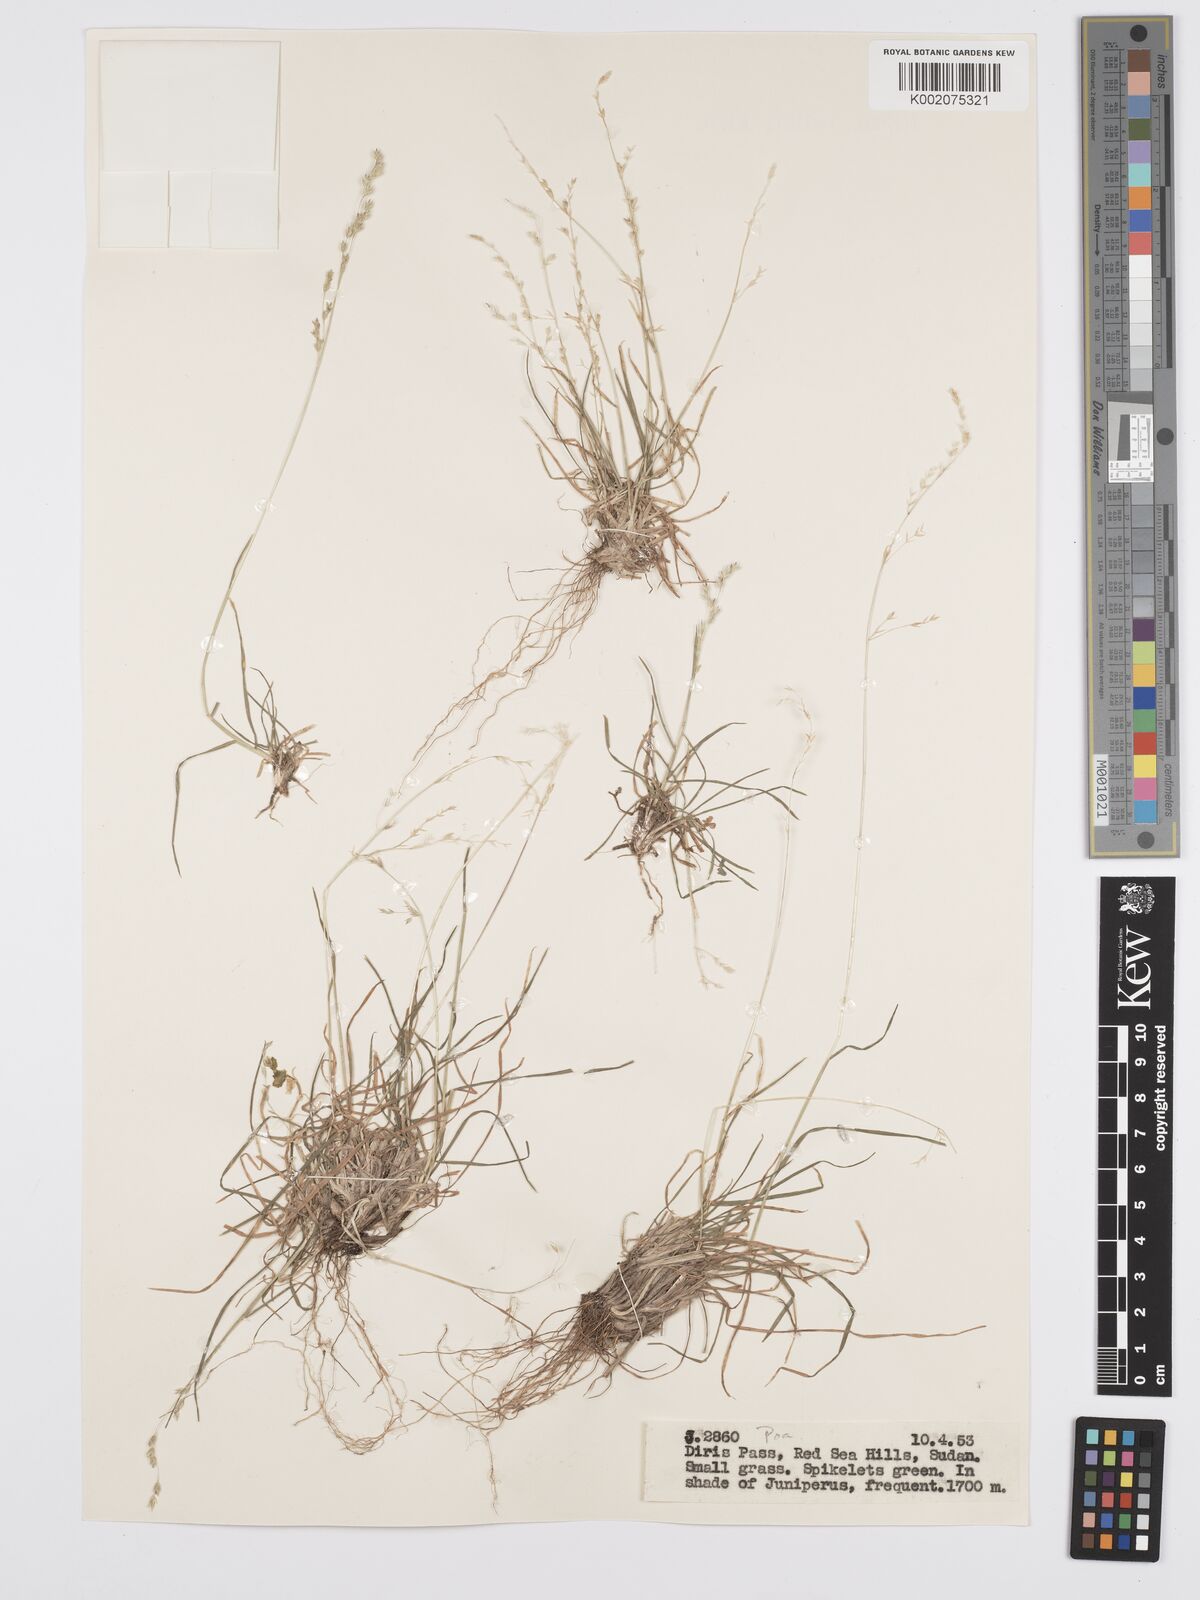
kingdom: Plantae
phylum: Tracheophyta
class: Liliopsida
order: Poales
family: Poaceae
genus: Poa
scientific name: Poa schimperiana
